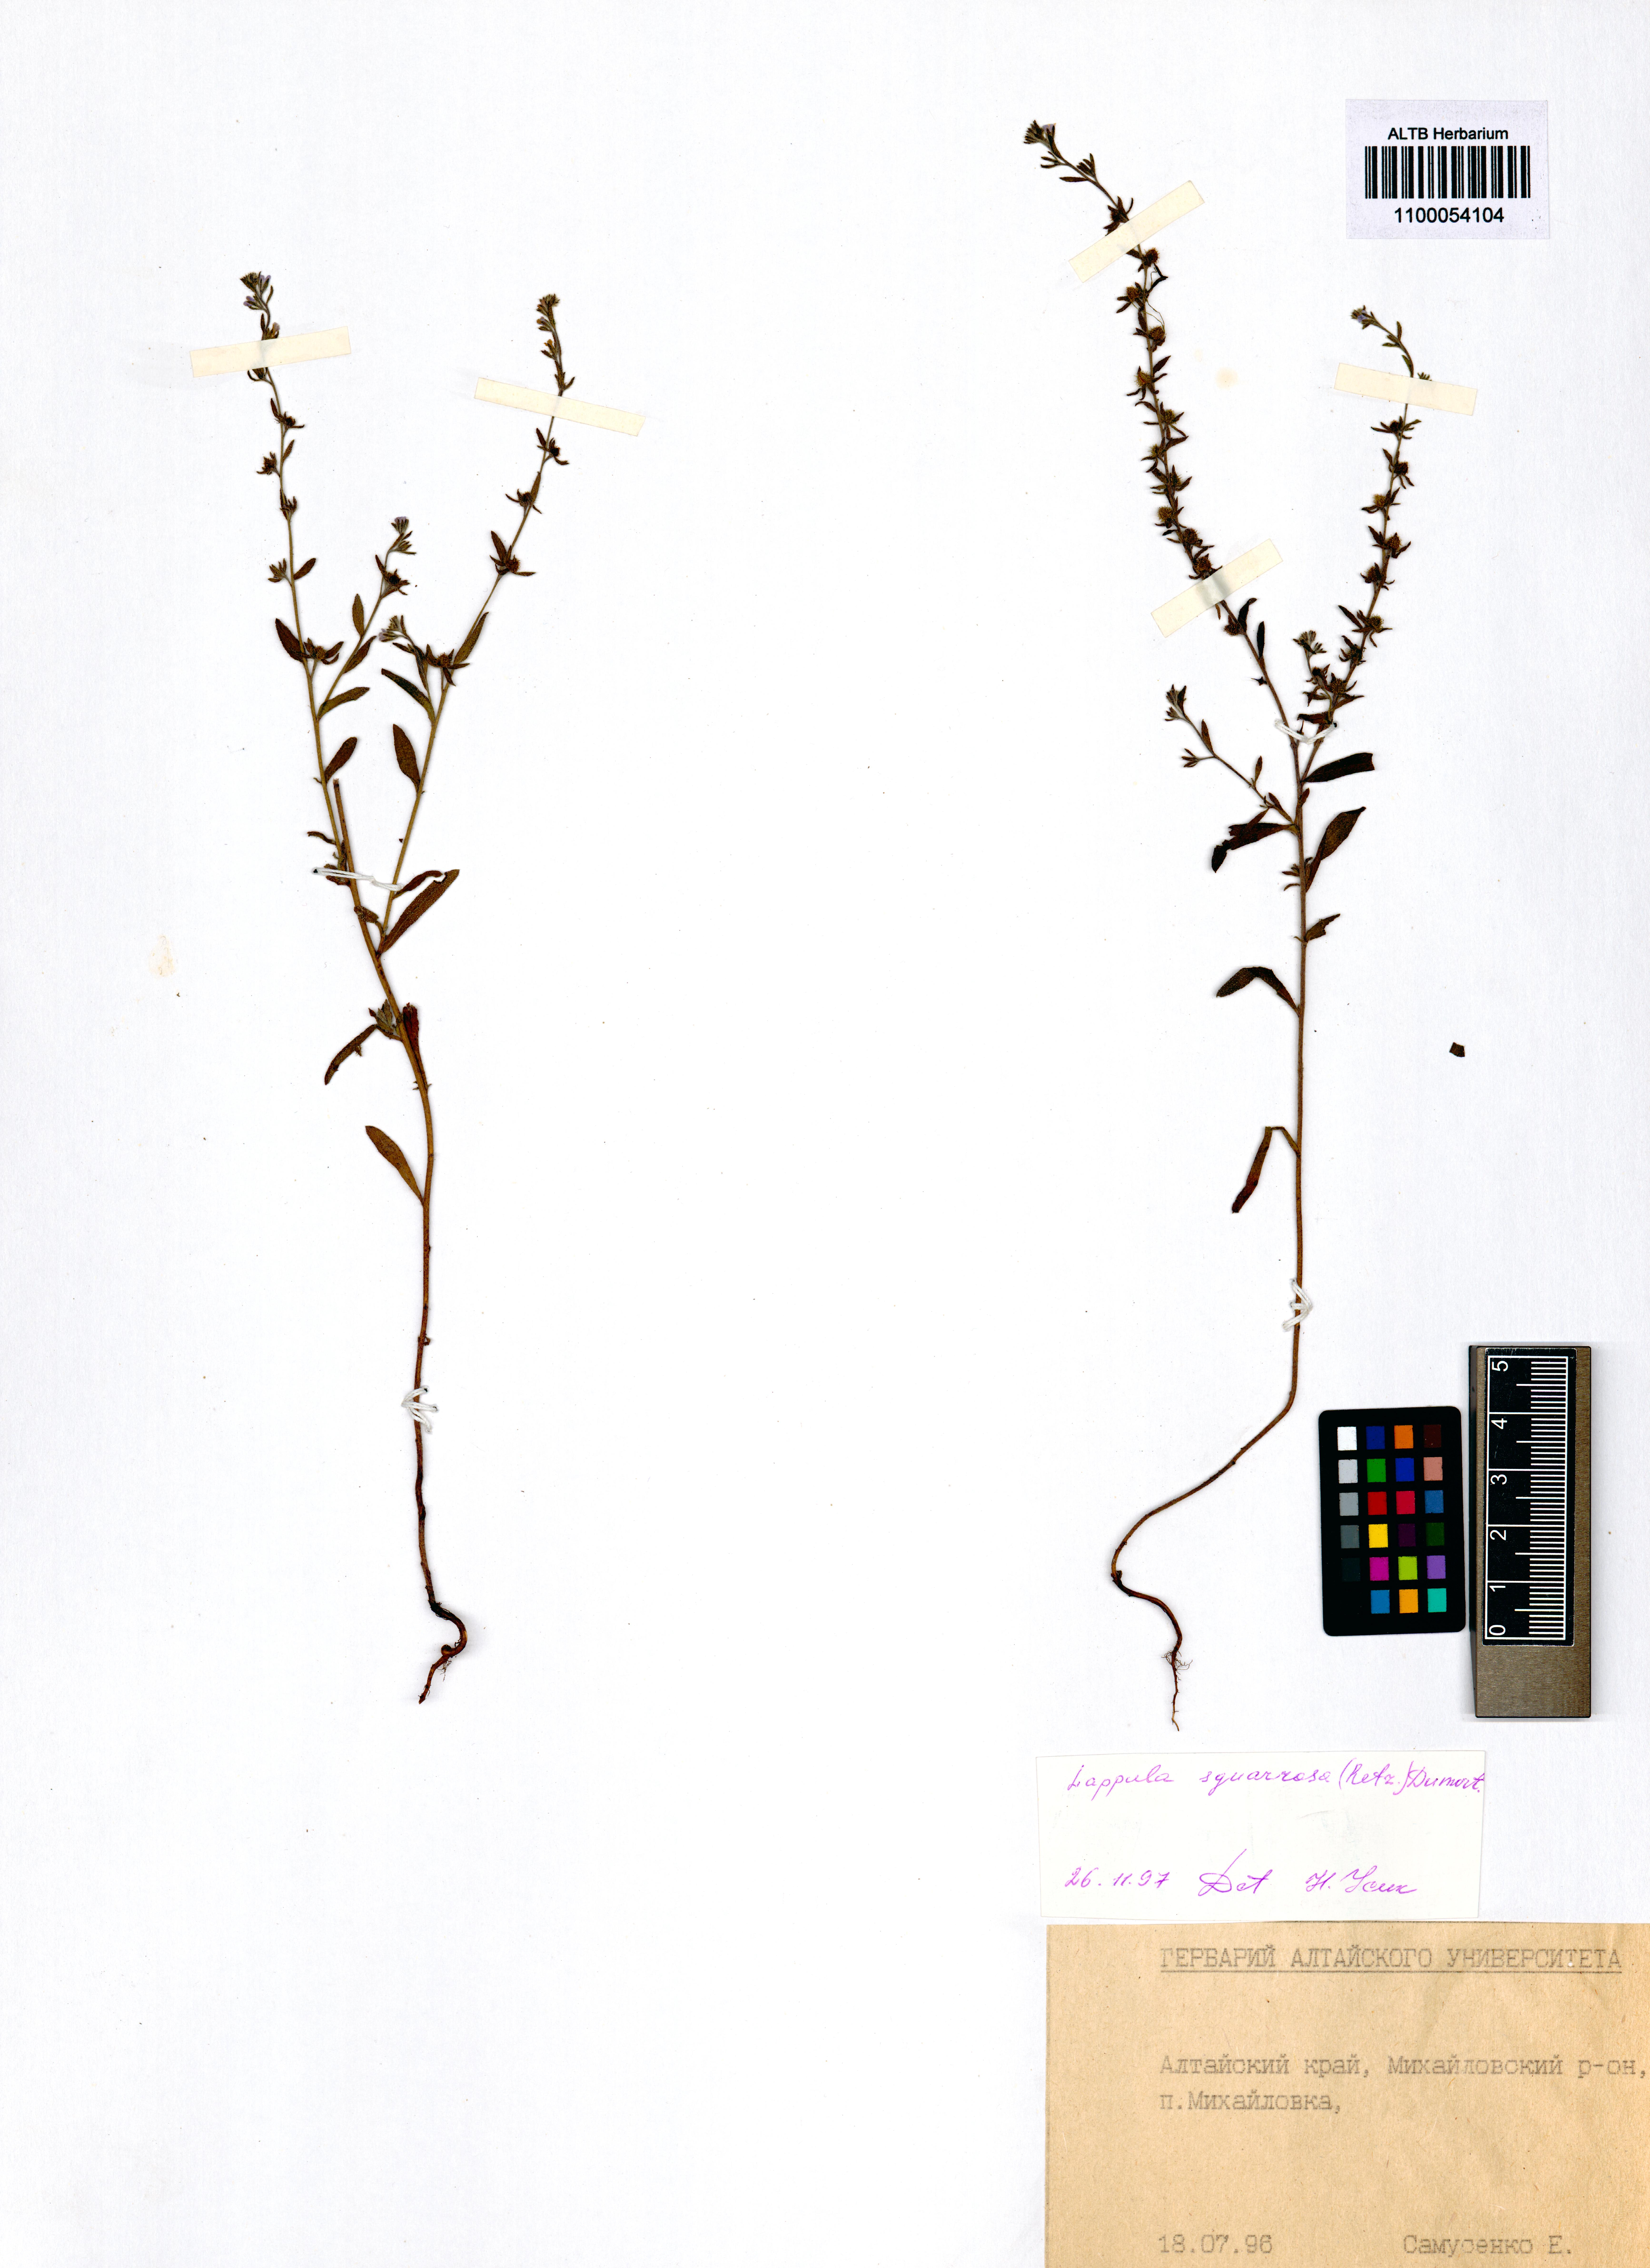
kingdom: Plantae
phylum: Tracheophyta
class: Magnoliopsida
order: Boraginales
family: Boraginaceae
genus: Lappula
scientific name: Lappula squarrosa
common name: European stickseed
